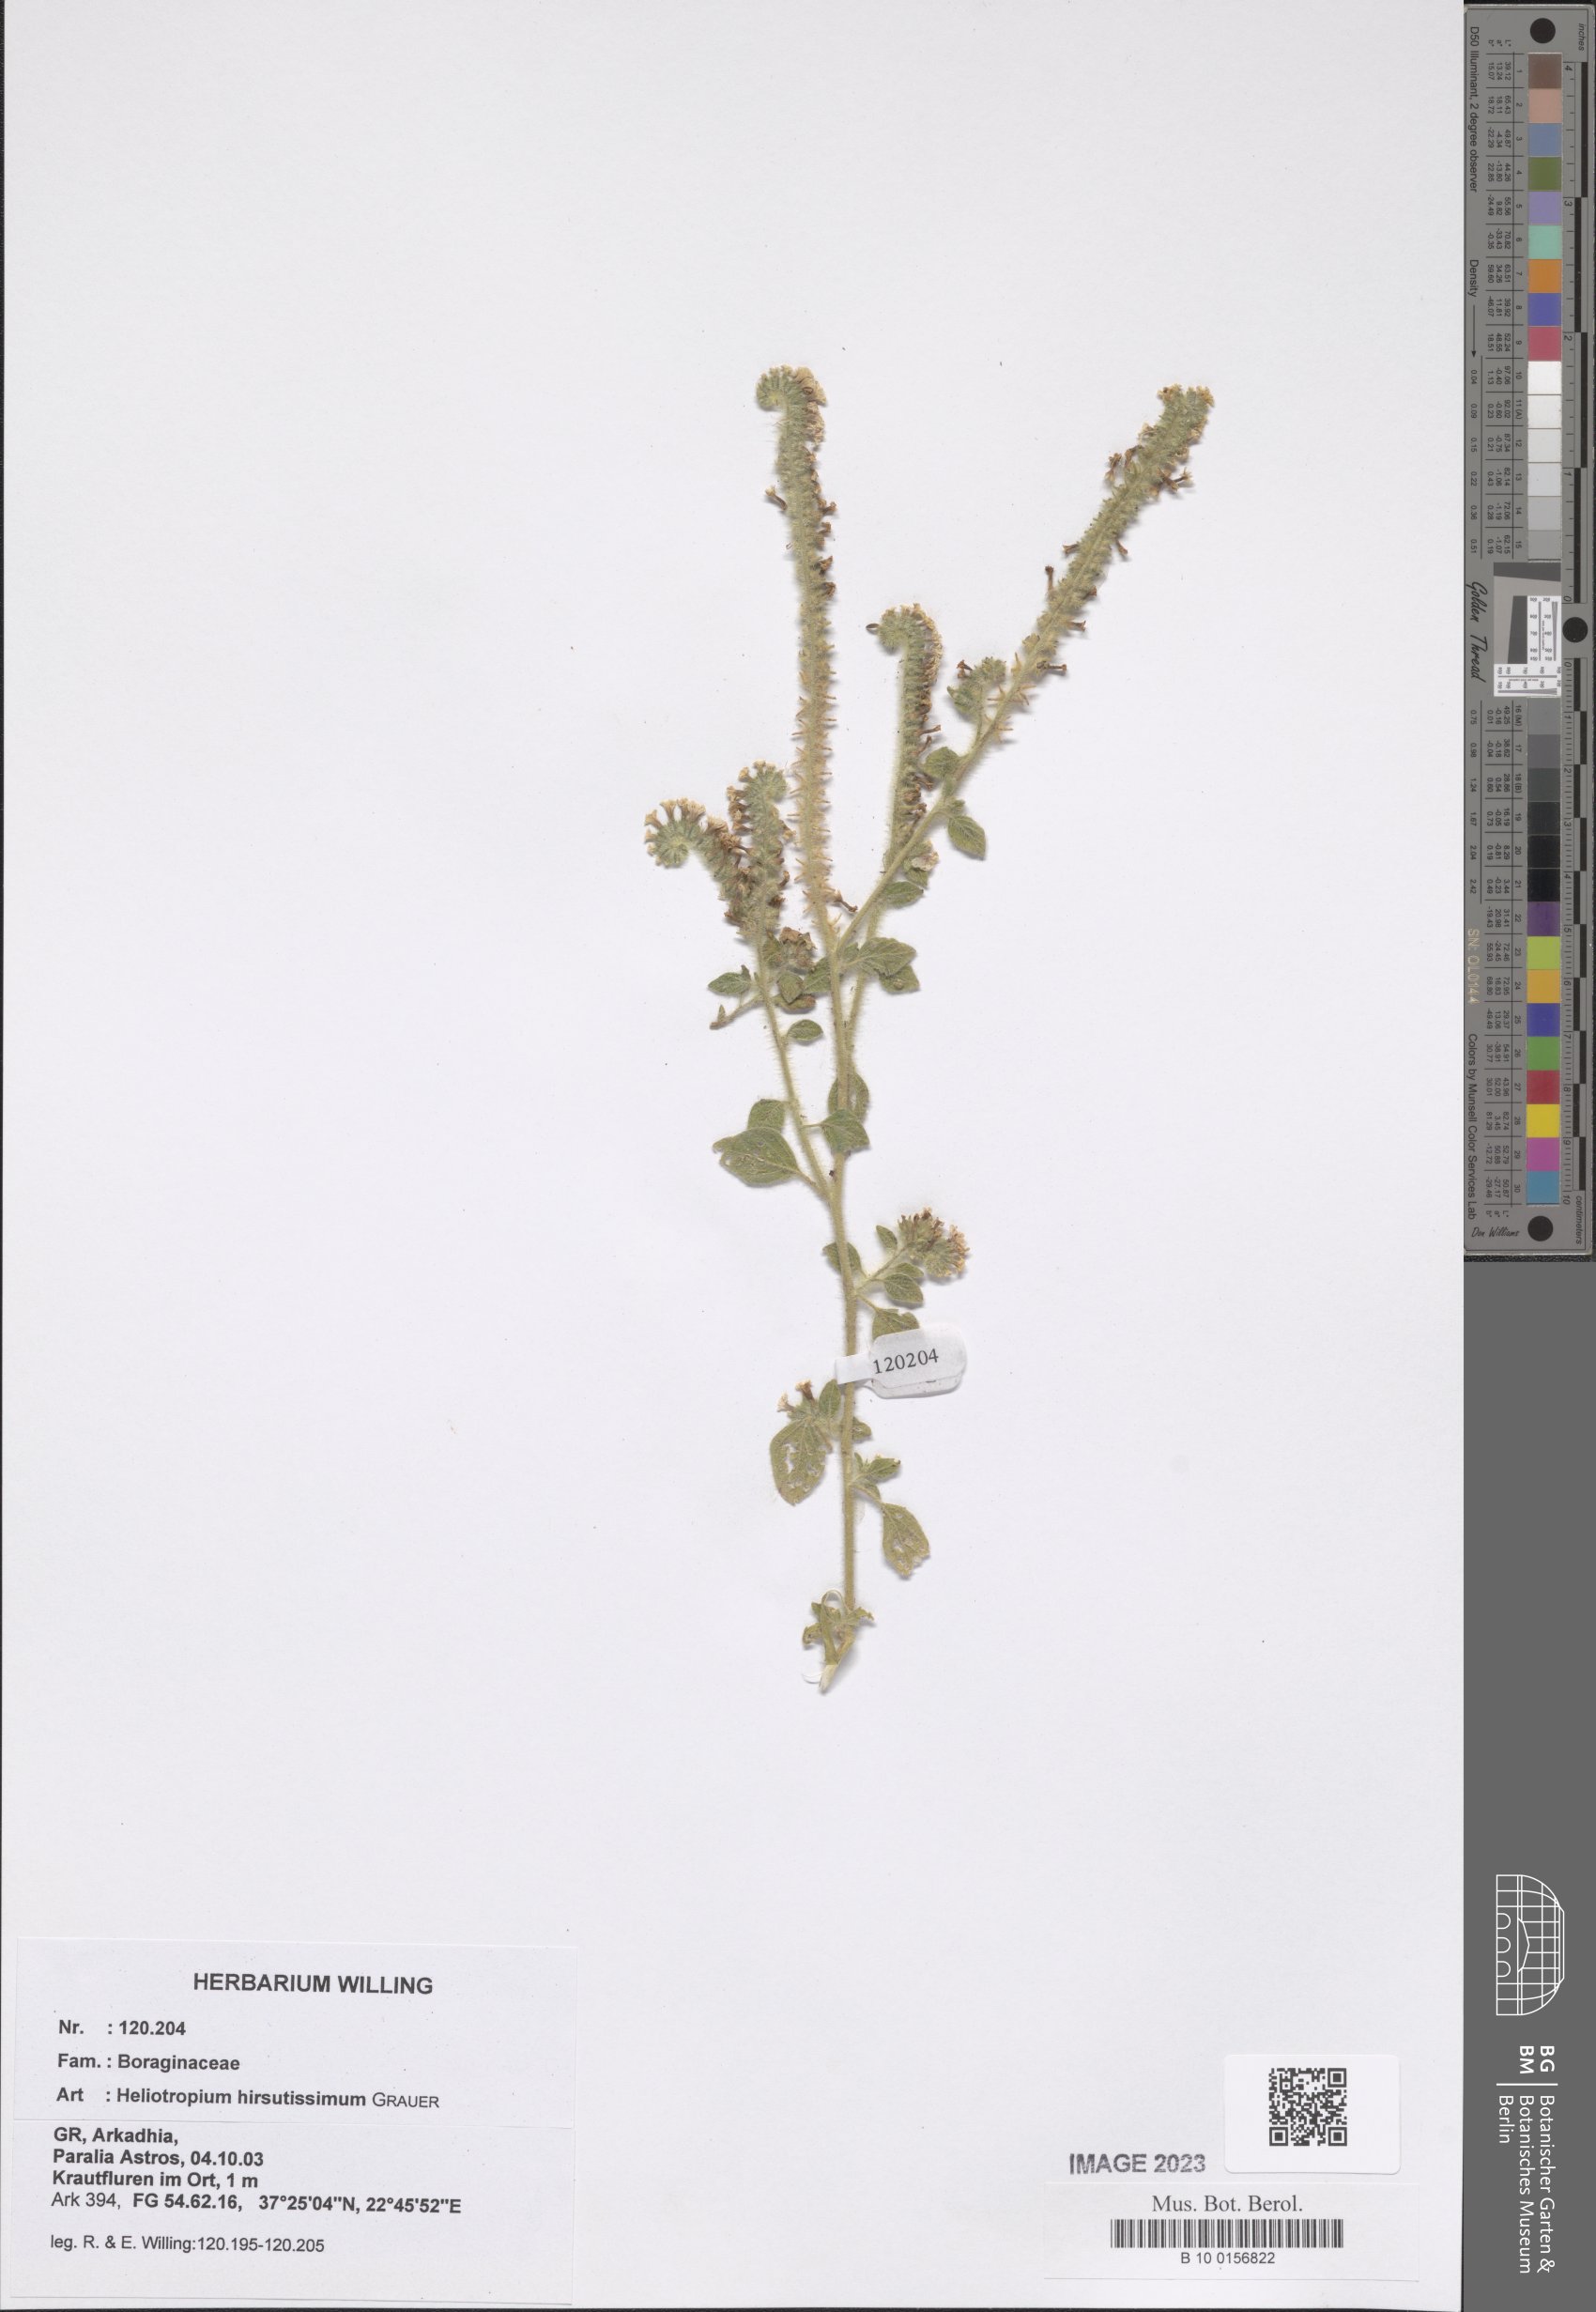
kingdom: Plantae
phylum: Tracheophyta
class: Magnoliopsida
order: Boraginales
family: Heliotropiaceae
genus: Heliotropium
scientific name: Heliotropium hirsutissimum
